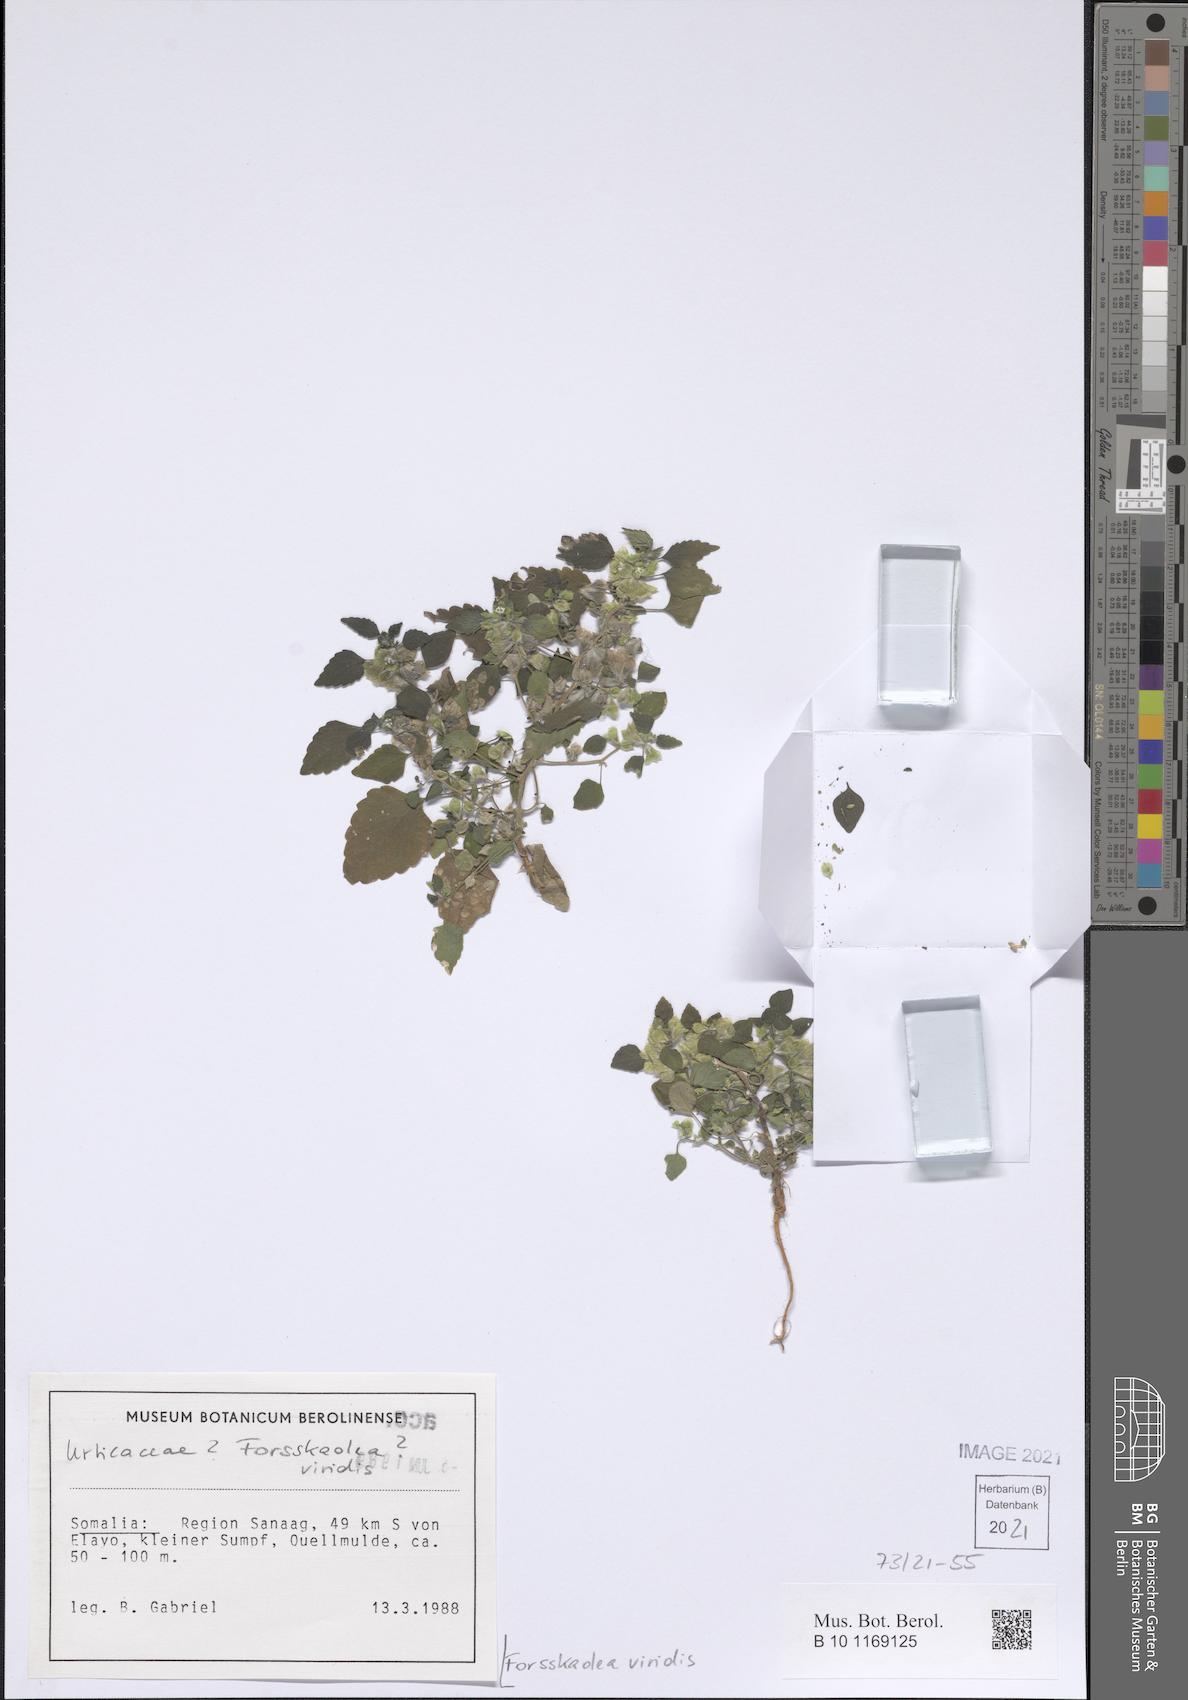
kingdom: Plantae
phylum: Tracheophyta
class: Magnoliopsida
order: Rosales
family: Urticaceae
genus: Forsskaolea
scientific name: Forsskaolea viridis
